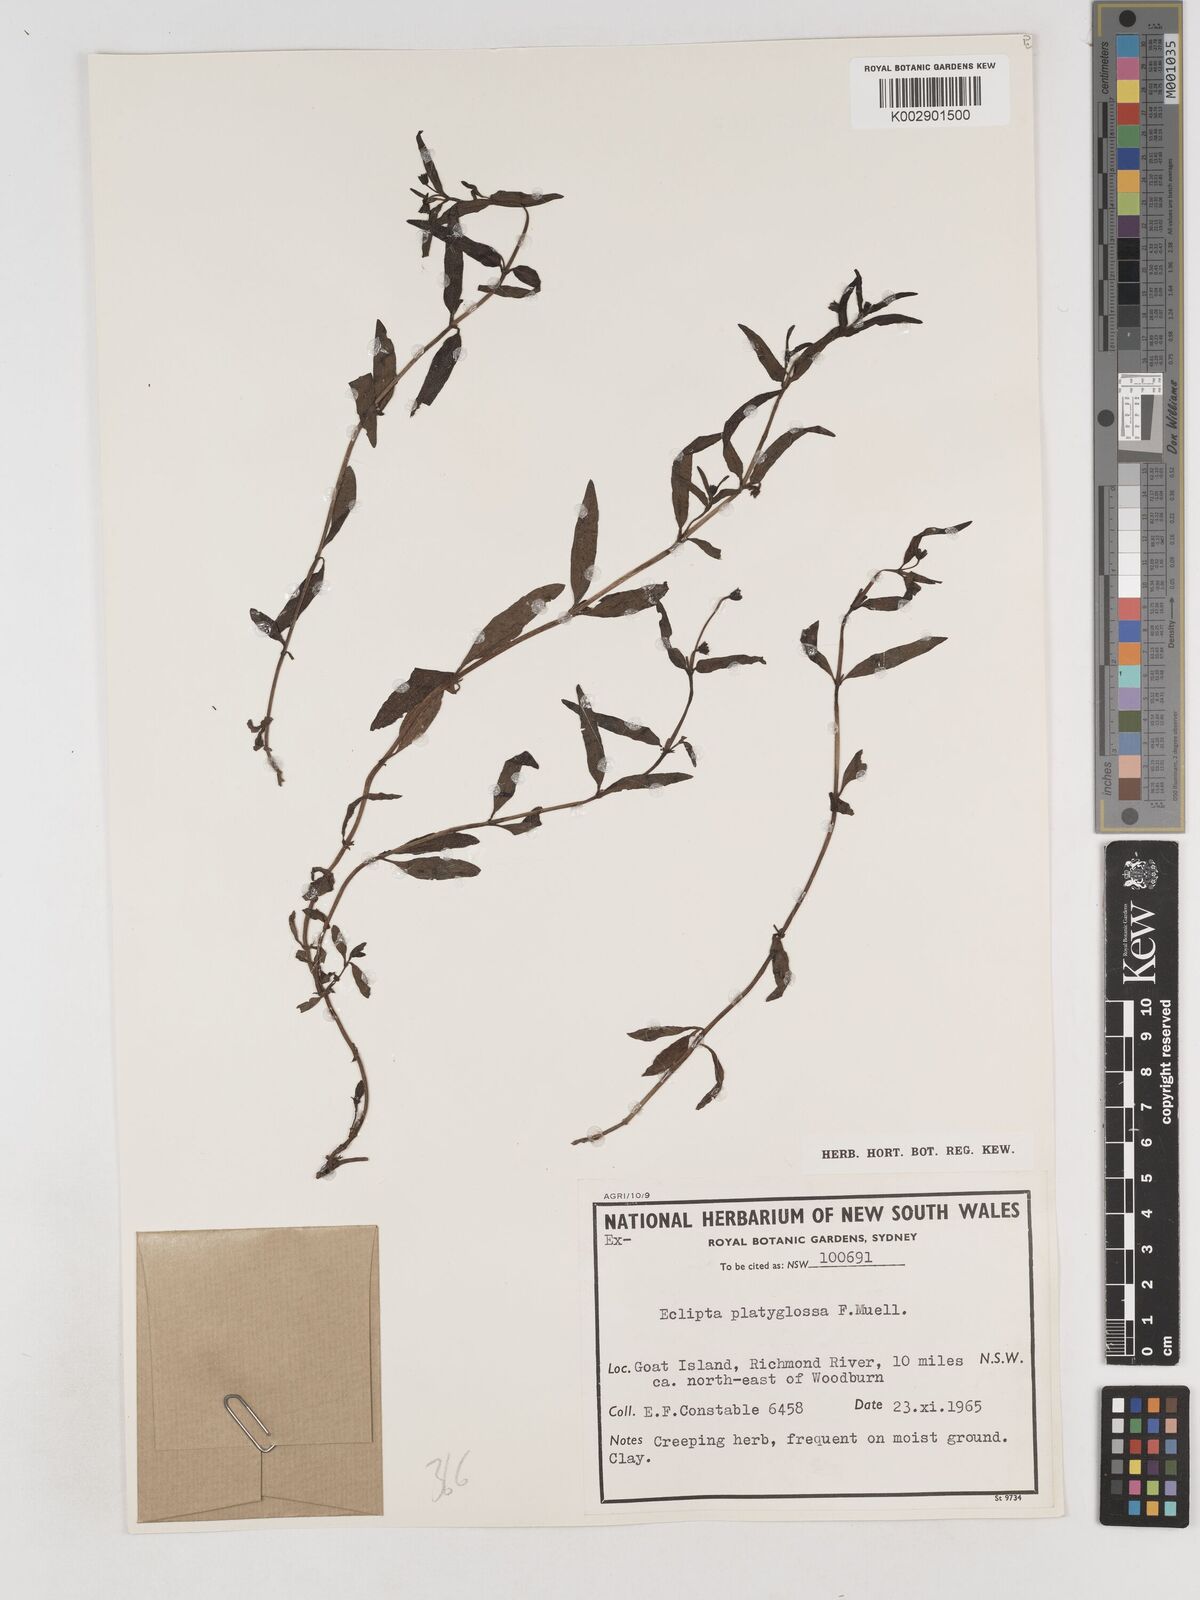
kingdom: Plantae
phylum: Tracheophyta
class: Magnoliopsida
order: Asterales
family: Asteraceae
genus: Eclipta
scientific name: Eclipta platyglossa
